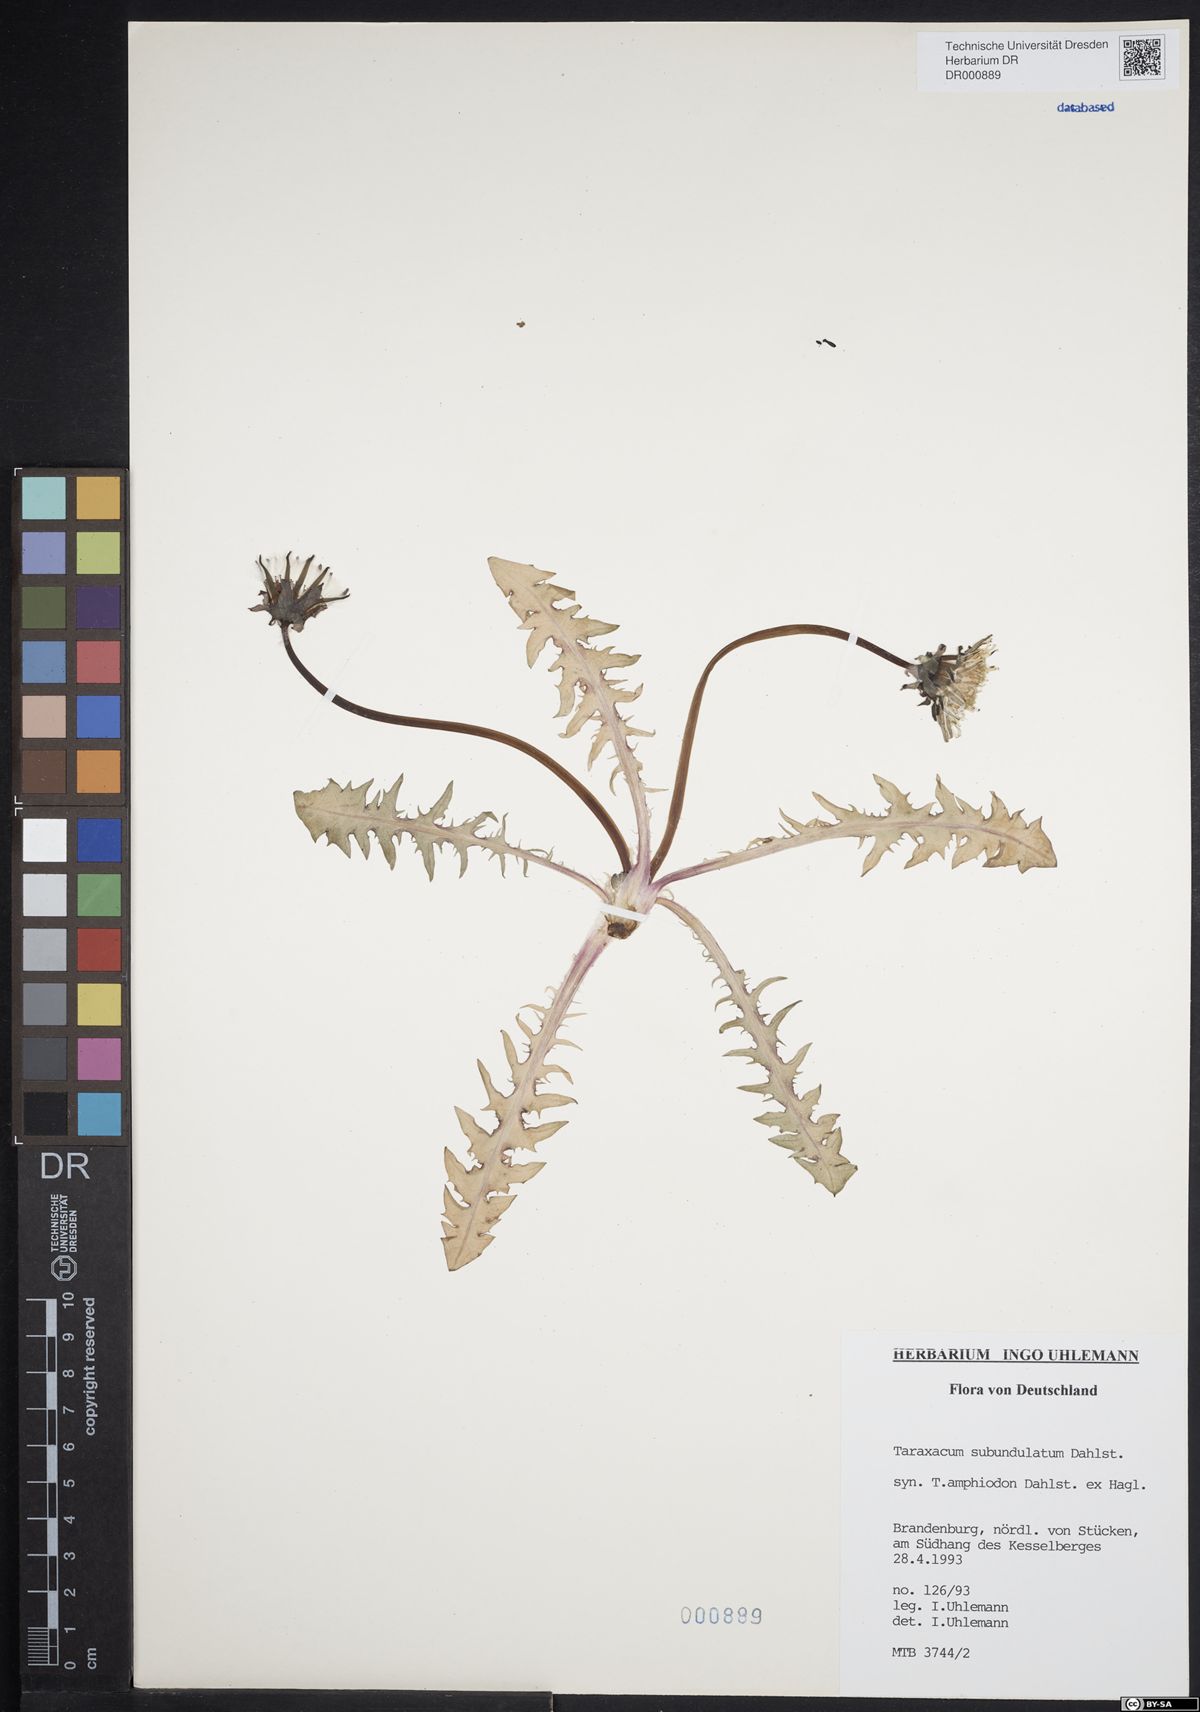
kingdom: Plantae
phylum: Tracheophyta
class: Magnoliopsida
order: Asterales
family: Asteraceae
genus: Taraxacum
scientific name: Taraxacum subundulatum
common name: Complex-leaved dandelion
